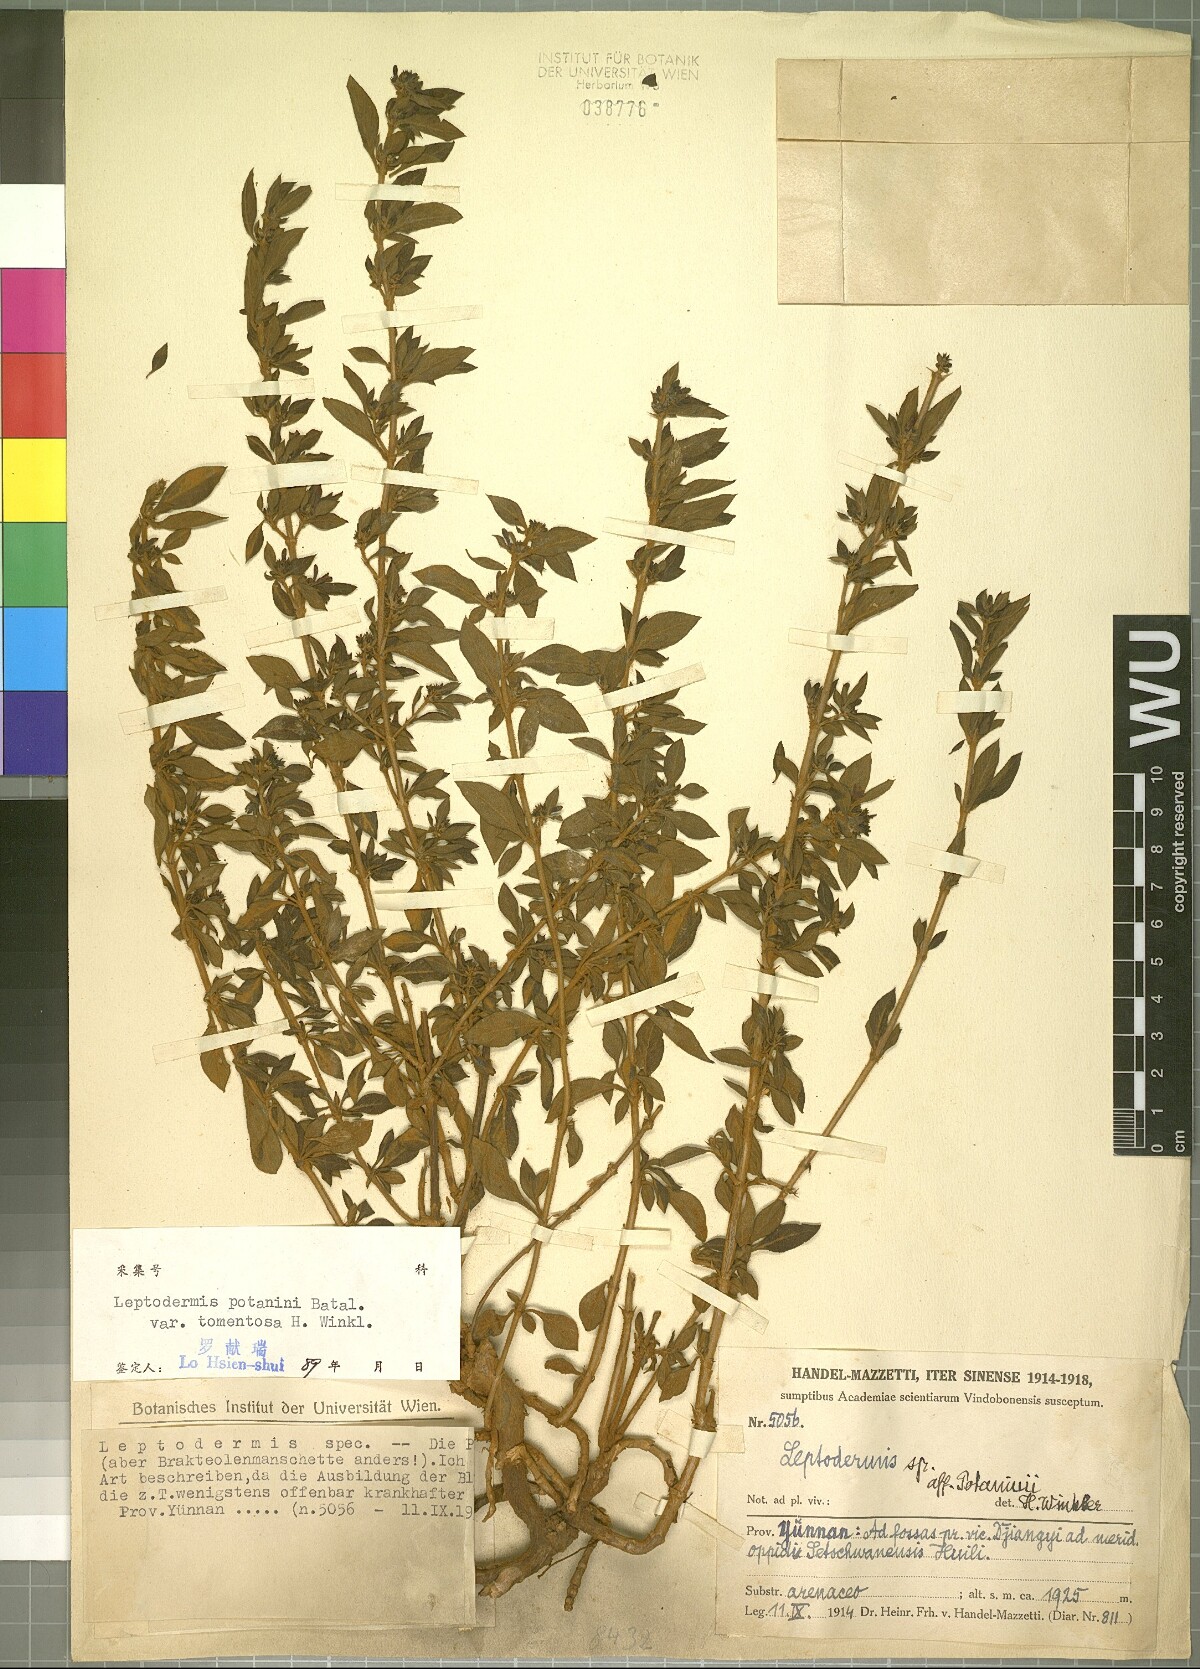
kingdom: Plantae
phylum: Tracheophyta
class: Magnoliopsida
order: Gentianales
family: Rubiaceae
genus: Leptodermis
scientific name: Leptodermis potaninii
